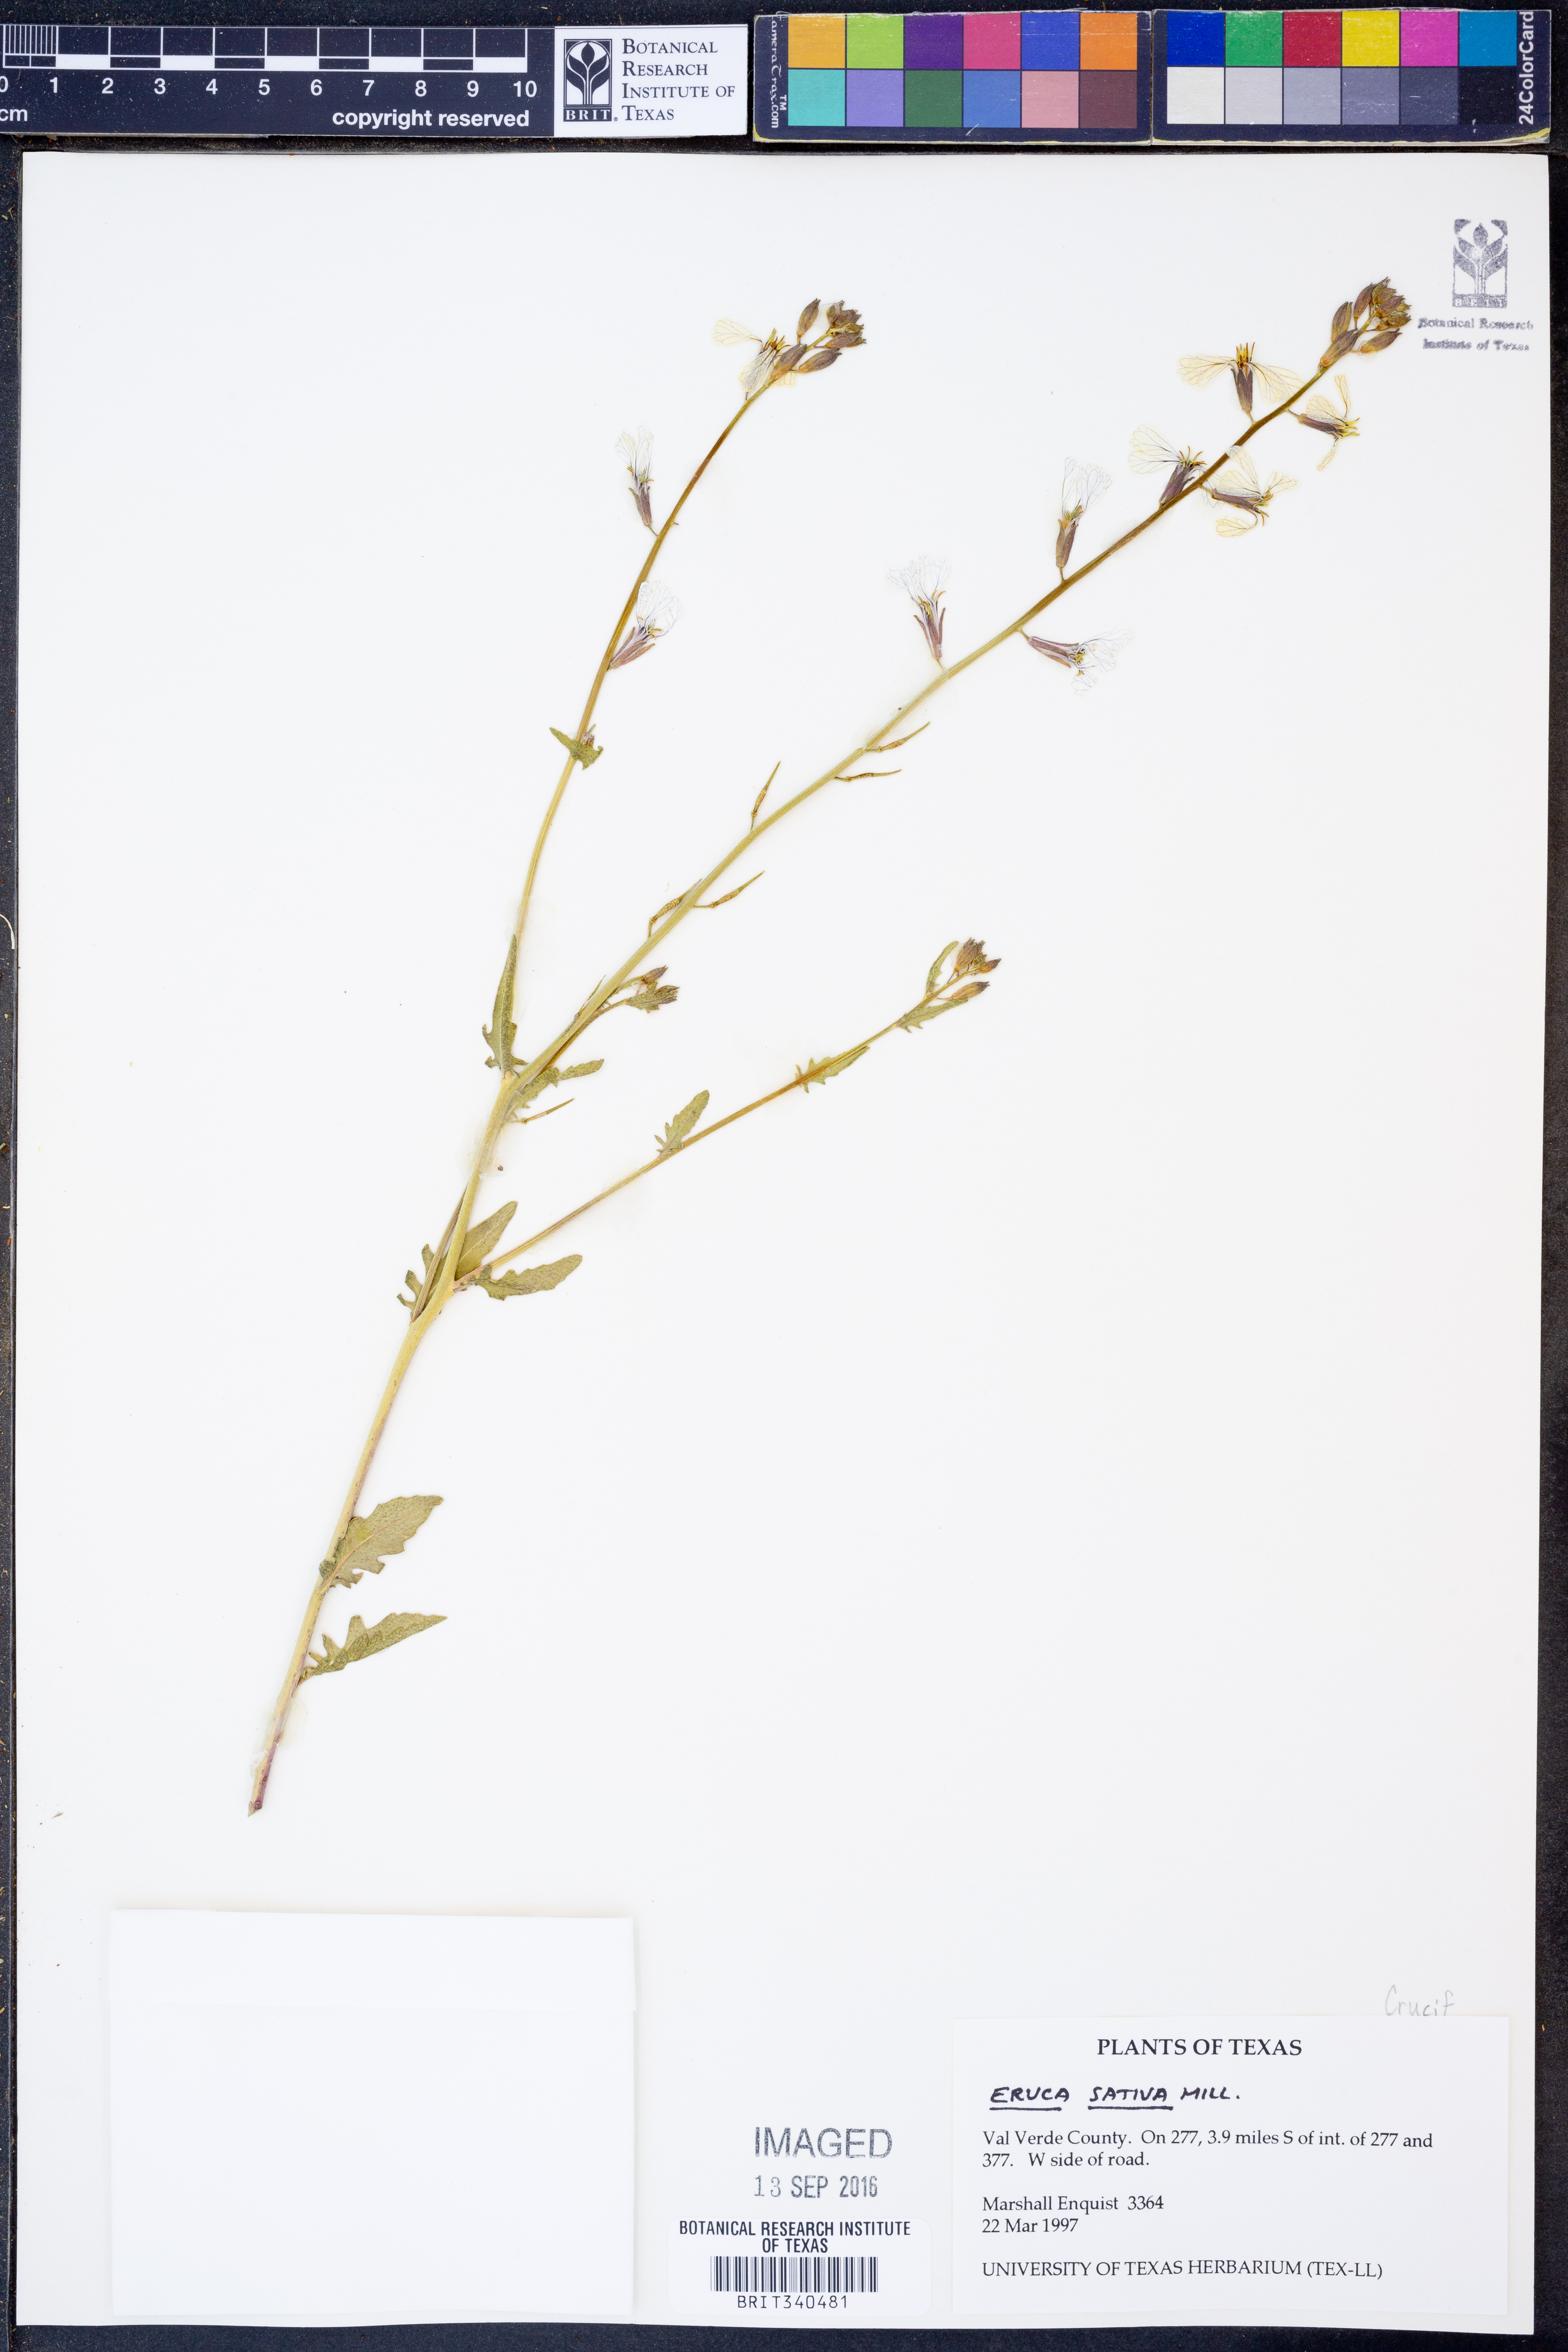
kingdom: Plantae
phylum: Tracheophyta
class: Magnoliopsida
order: Brassicales
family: Brassicaceae
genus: Eruca
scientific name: Eruca vesicaria
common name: Garden rocket
